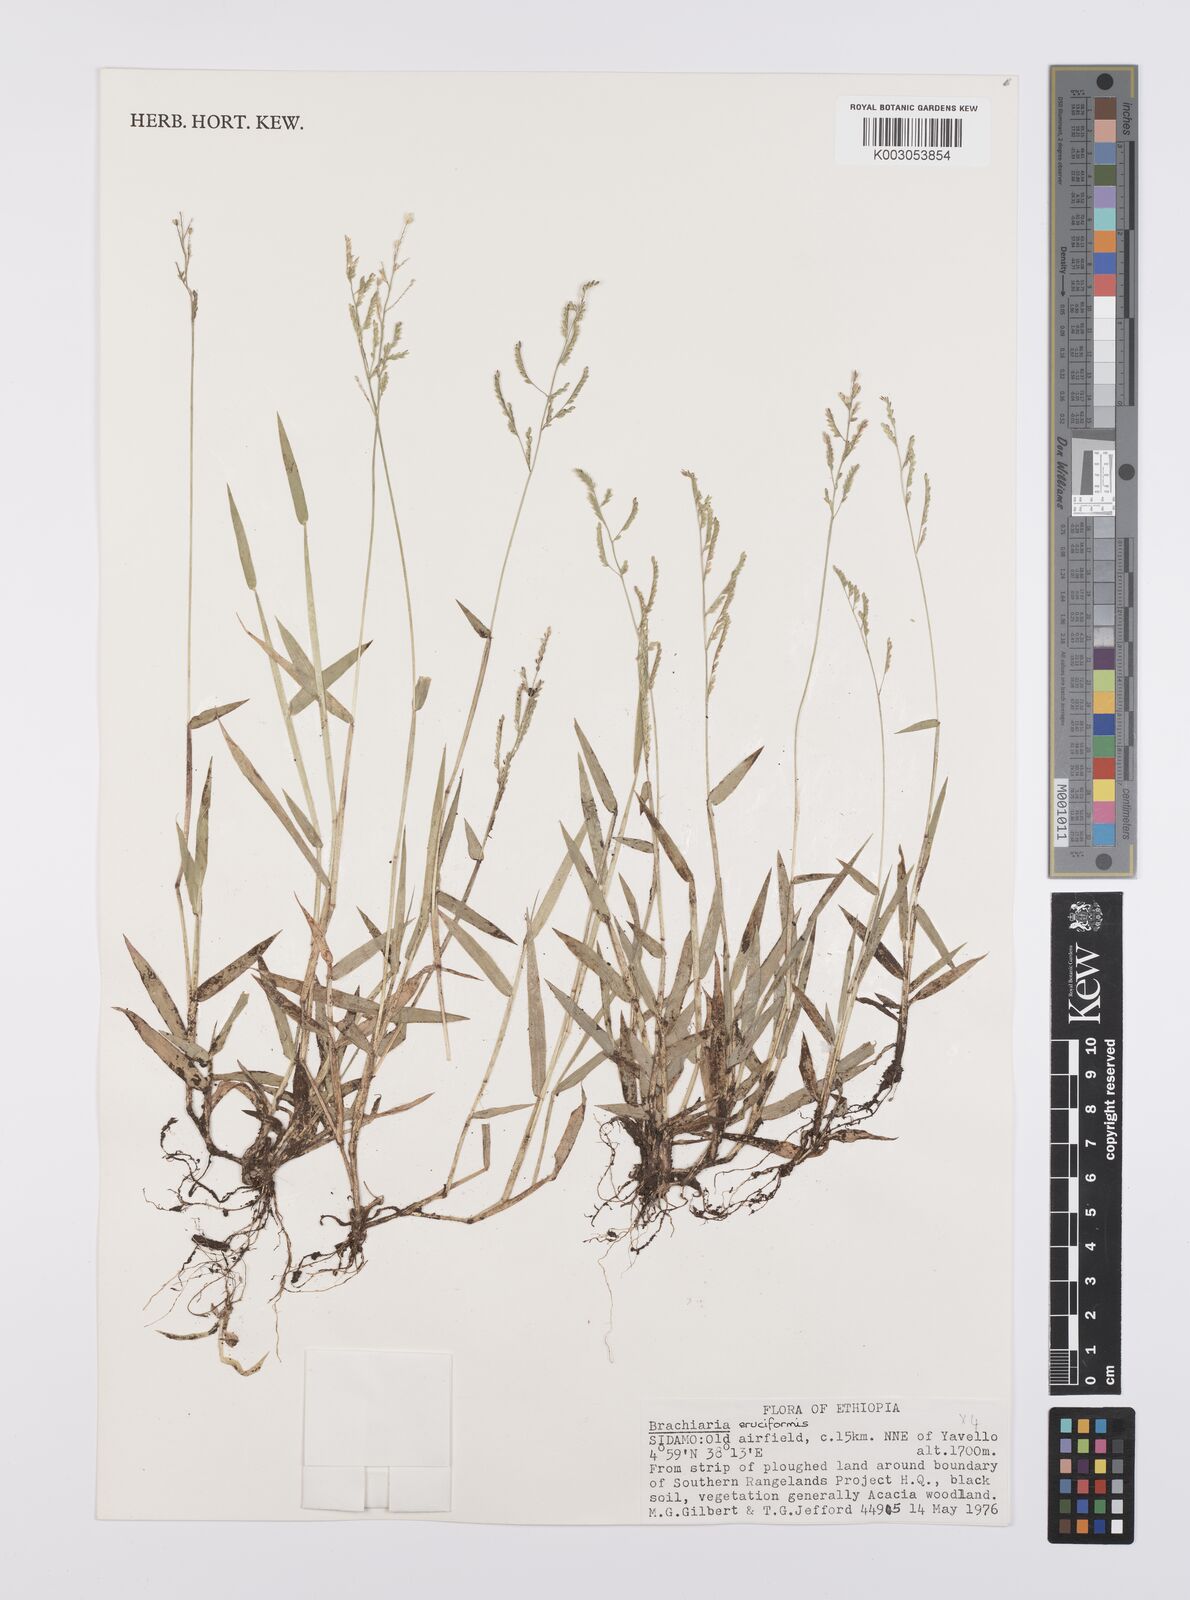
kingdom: Plantae
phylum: Tracheophyta
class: Liliopsida
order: Poales
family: Poaceae
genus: Moorochloa
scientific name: Moorochloa eruciformis
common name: Sweet signalgrass
